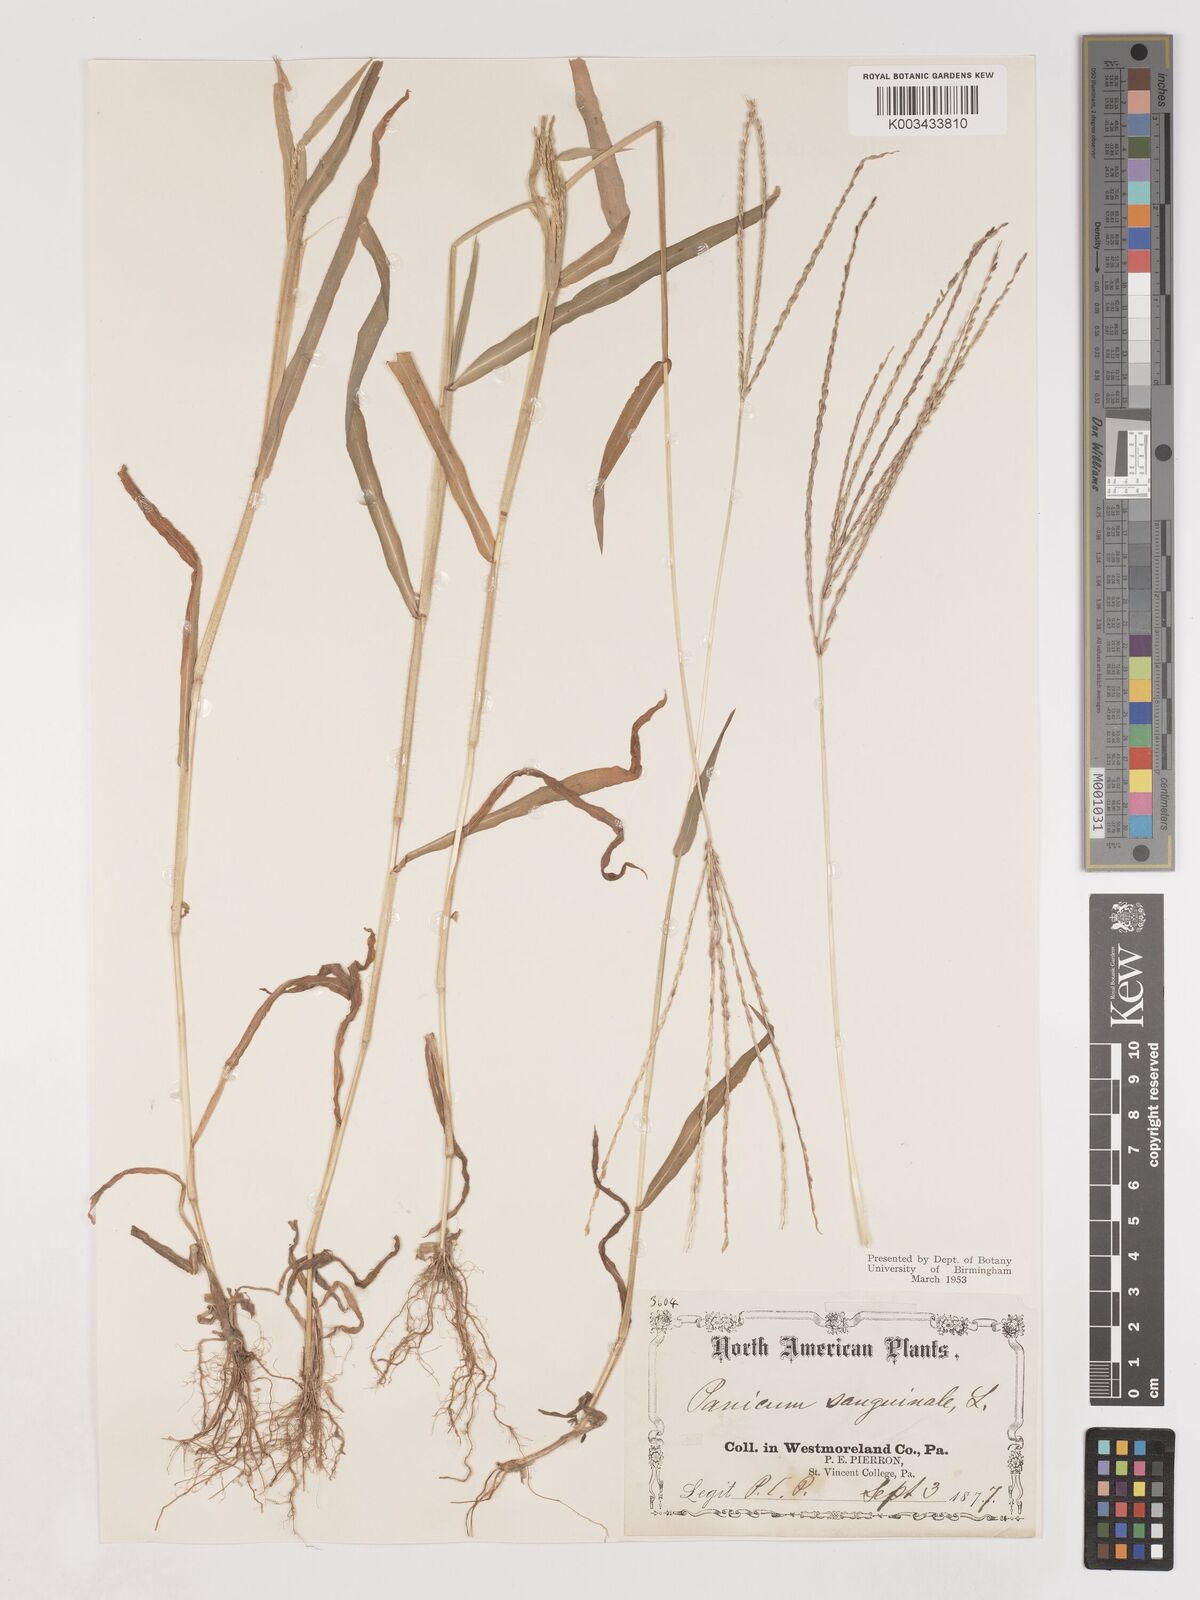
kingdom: Plantae
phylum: Tracheophyta
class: Liliopsida
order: Poales
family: Poaceae
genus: Digitaria
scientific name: Digitaria sanguinalis
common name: Hairy crabgrass
